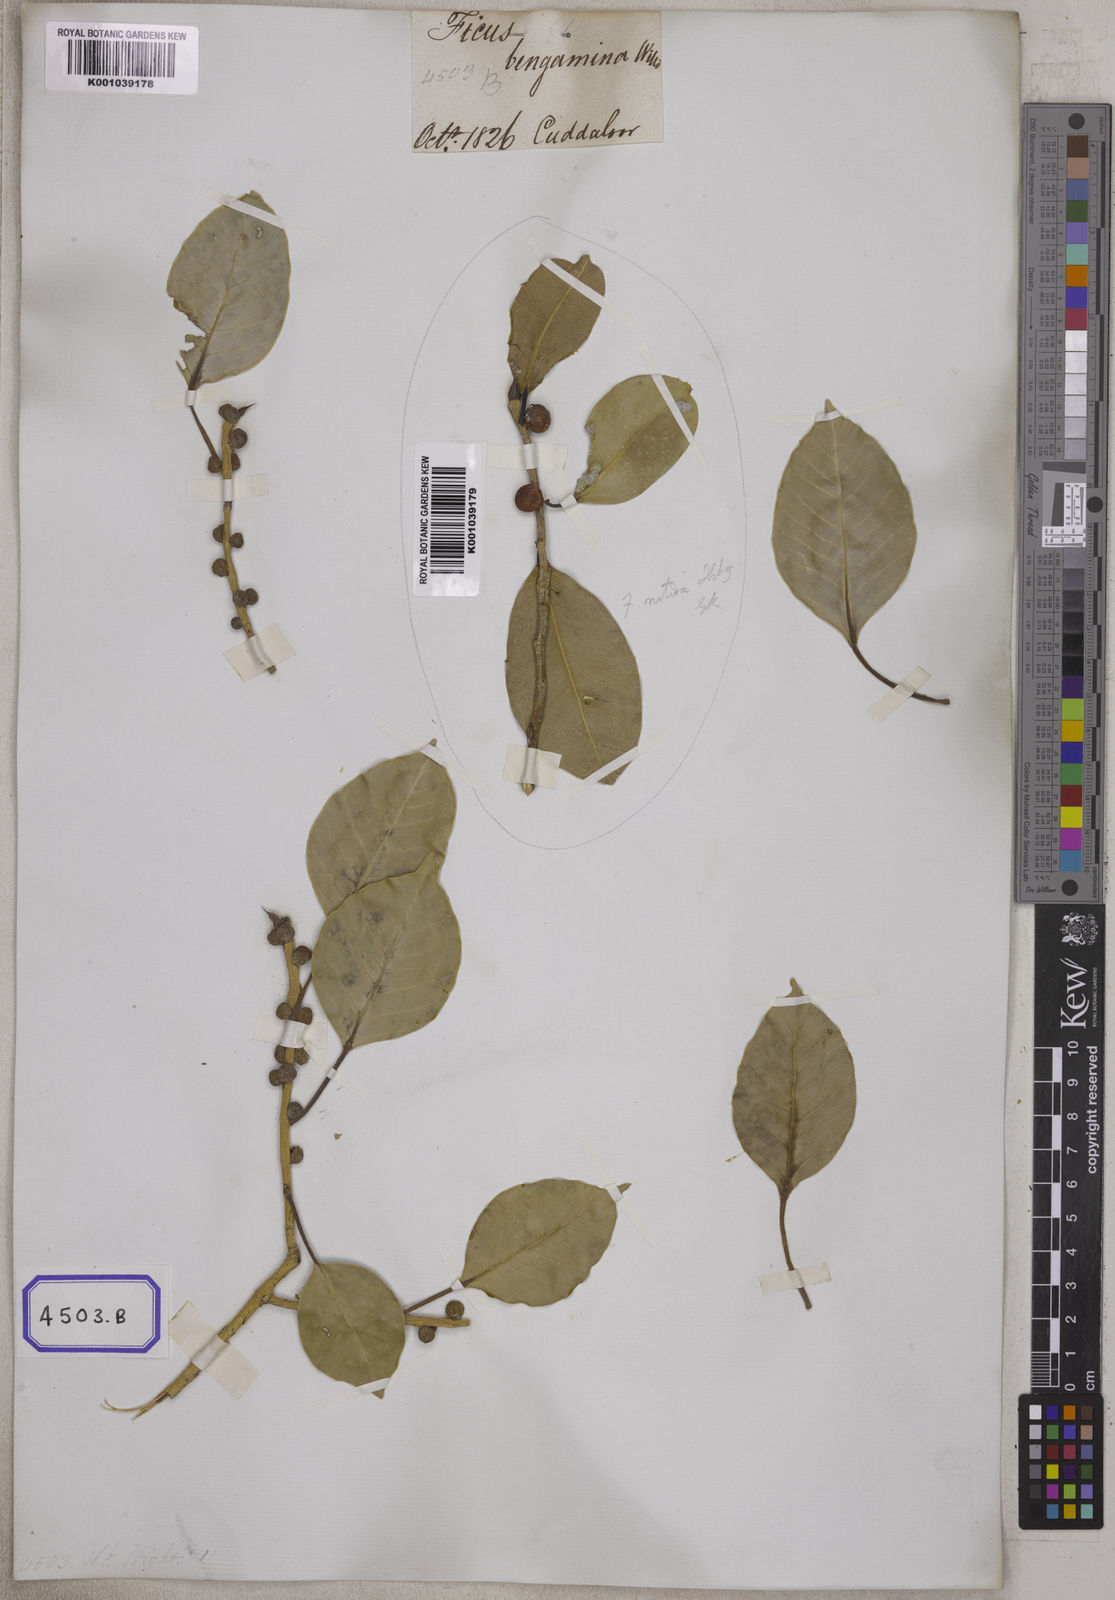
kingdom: Plantae
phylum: Tracheophyta
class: Magnoliopsida
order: Rosales
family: Moraceae
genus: Ficus
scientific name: Ficus
